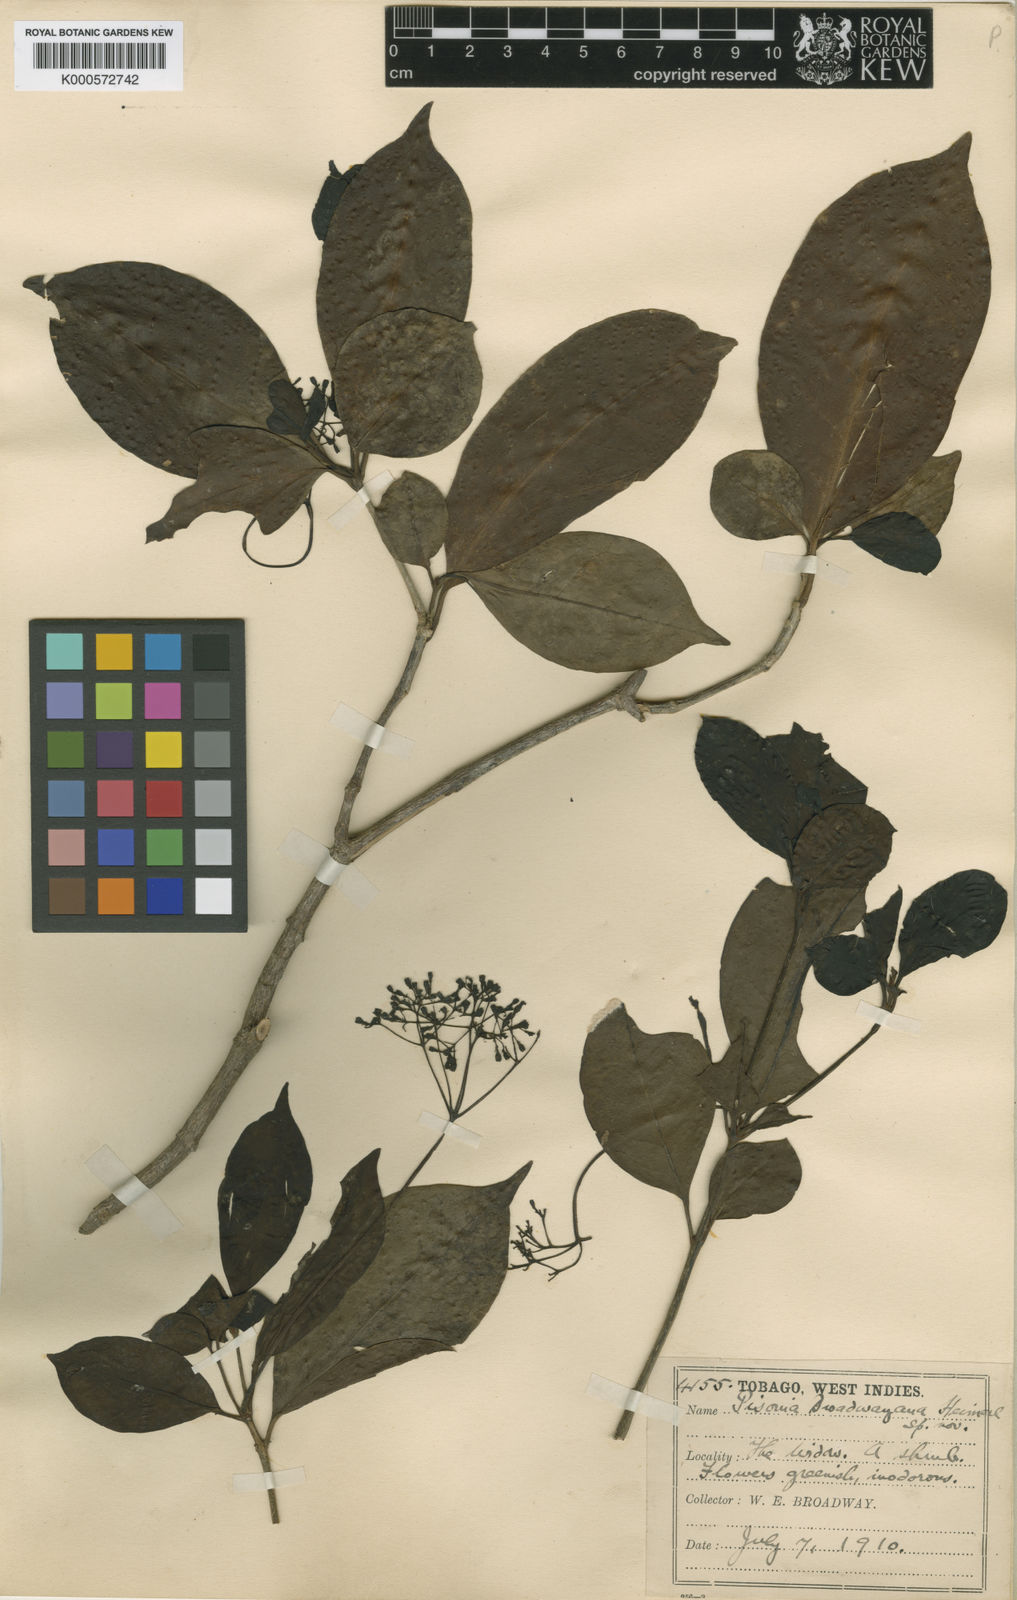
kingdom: Plantae
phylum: Tracheophyta
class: Magnoliopsida
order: Caryophyllales
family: Nyctaginaceae
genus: Guapira
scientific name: Guapira eggersiana
